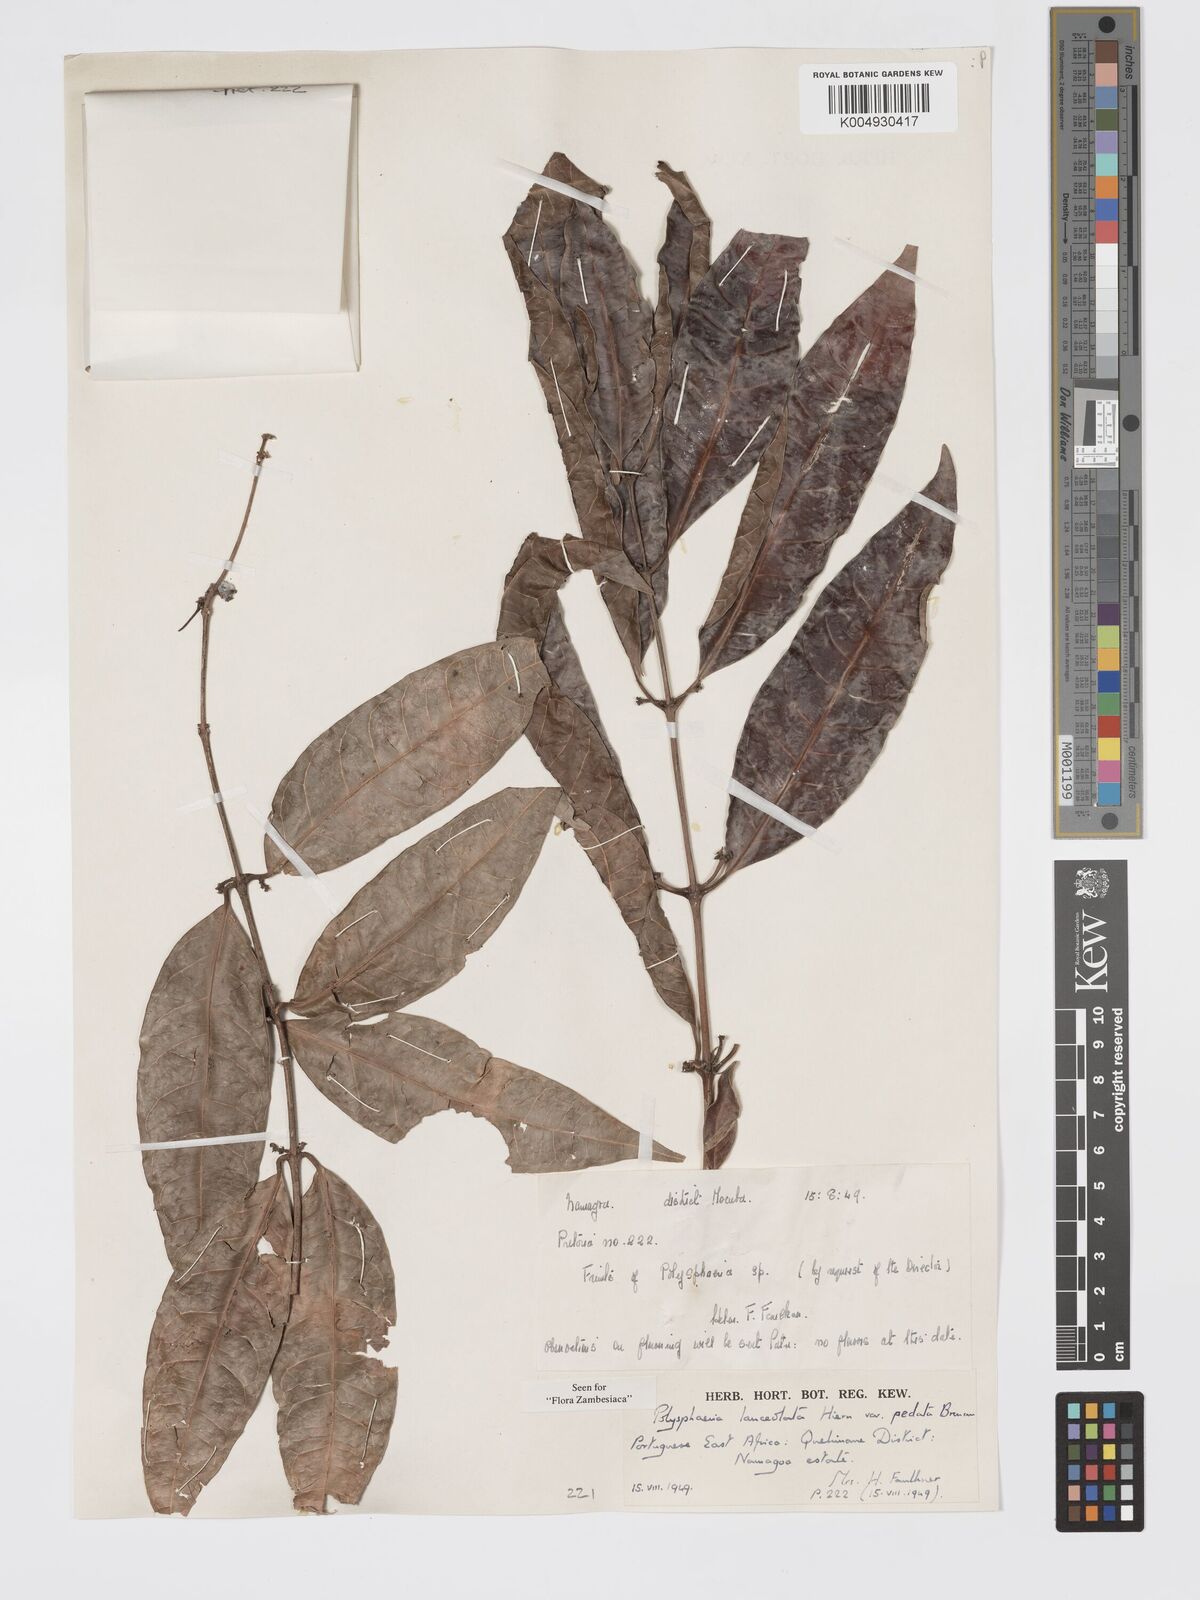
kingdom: Plantae
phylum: Tracheophyta
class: Magnoliopsida
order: Gentianales
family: Rubiaceae
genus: Polysphaeria
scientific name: Polysphaeria lanceolata
